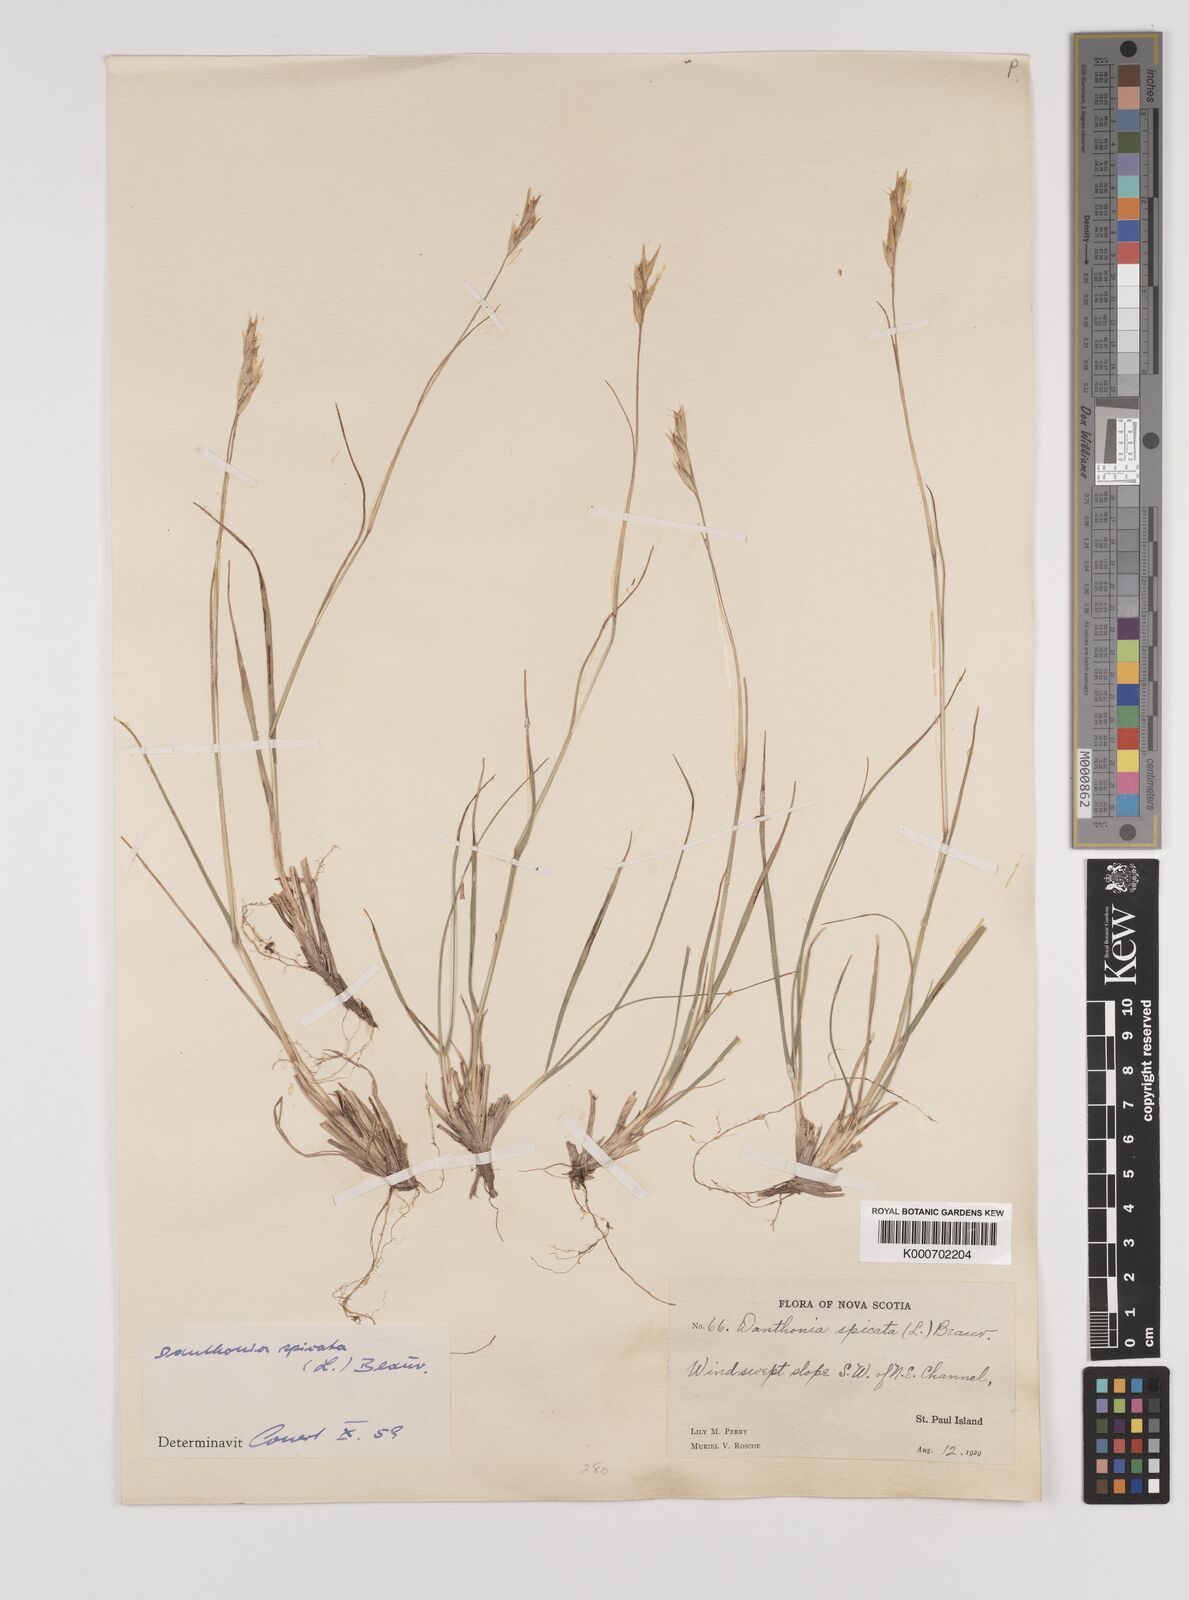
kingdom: Plantae
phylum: Tracheophyta
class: Liliopsida
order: Poales
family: Poaceae
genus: Danthonia
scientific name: Danthonia spicata
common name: Common wild oatgrass
